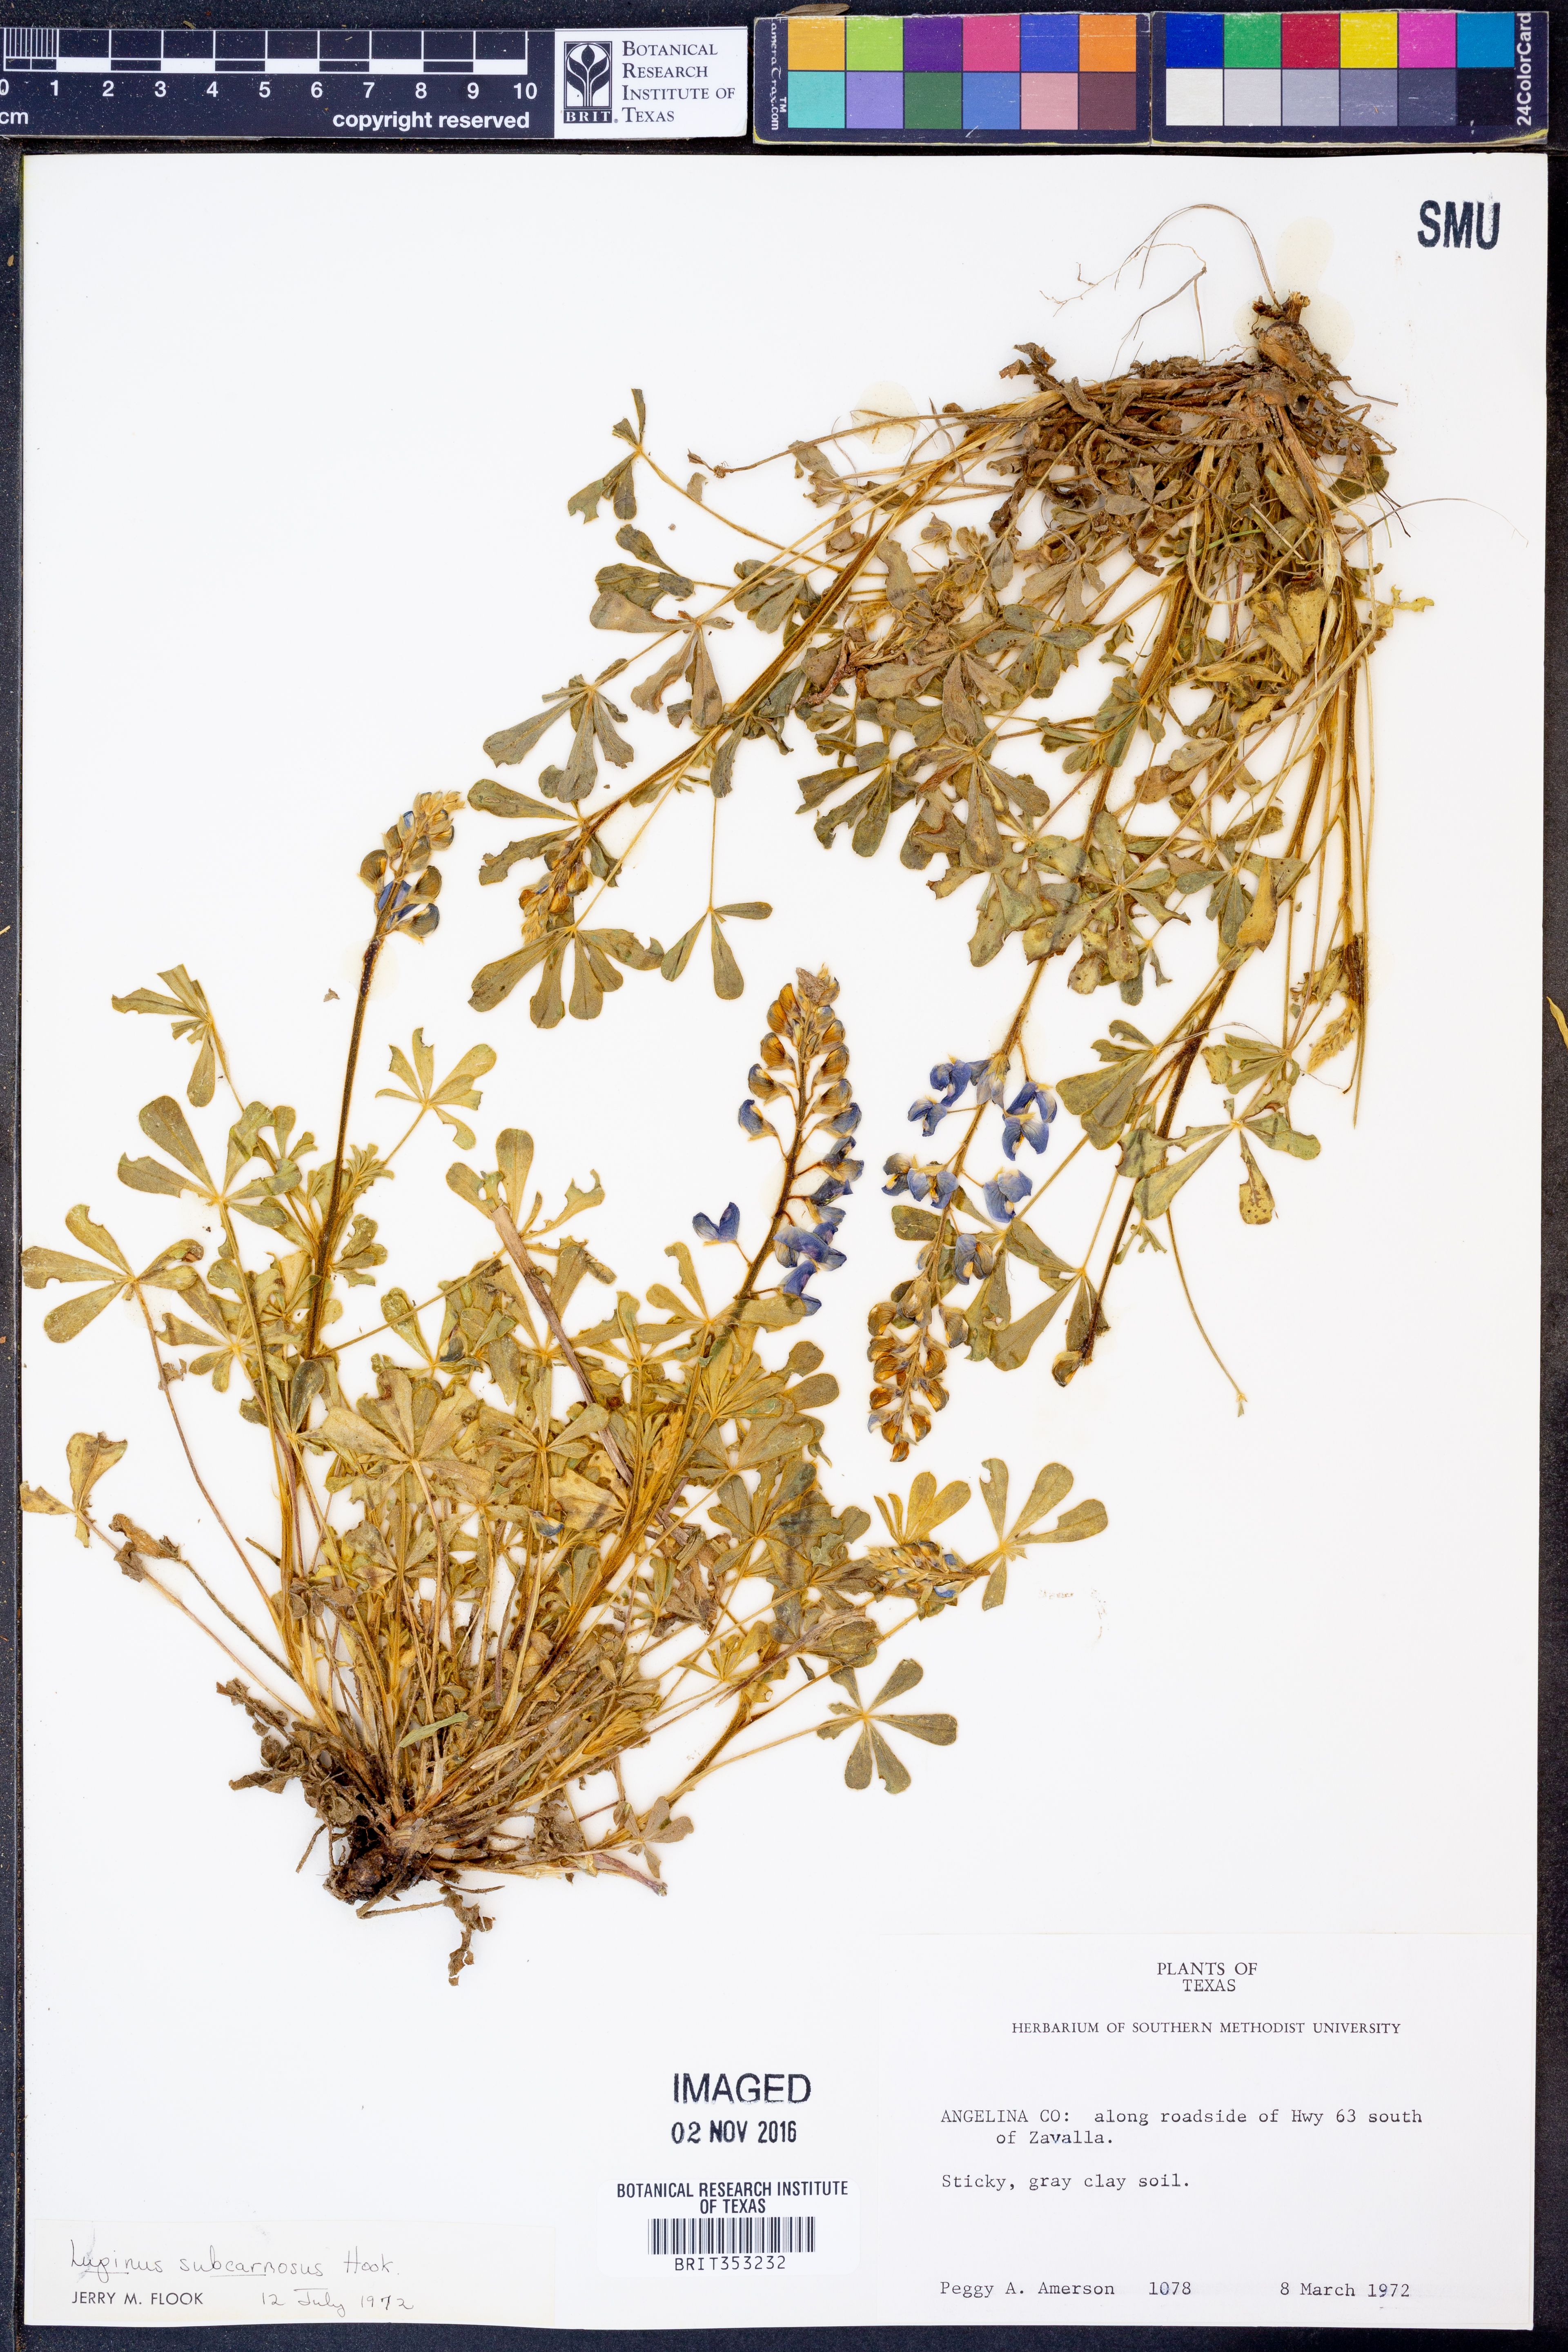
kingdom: Plantae
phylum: Tracheophyta
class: Magnoliopsida
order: Fabales
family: Fabaceae
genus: Lupinus
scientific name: Lupinus subcarnosus
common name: Texas bluebonnet
